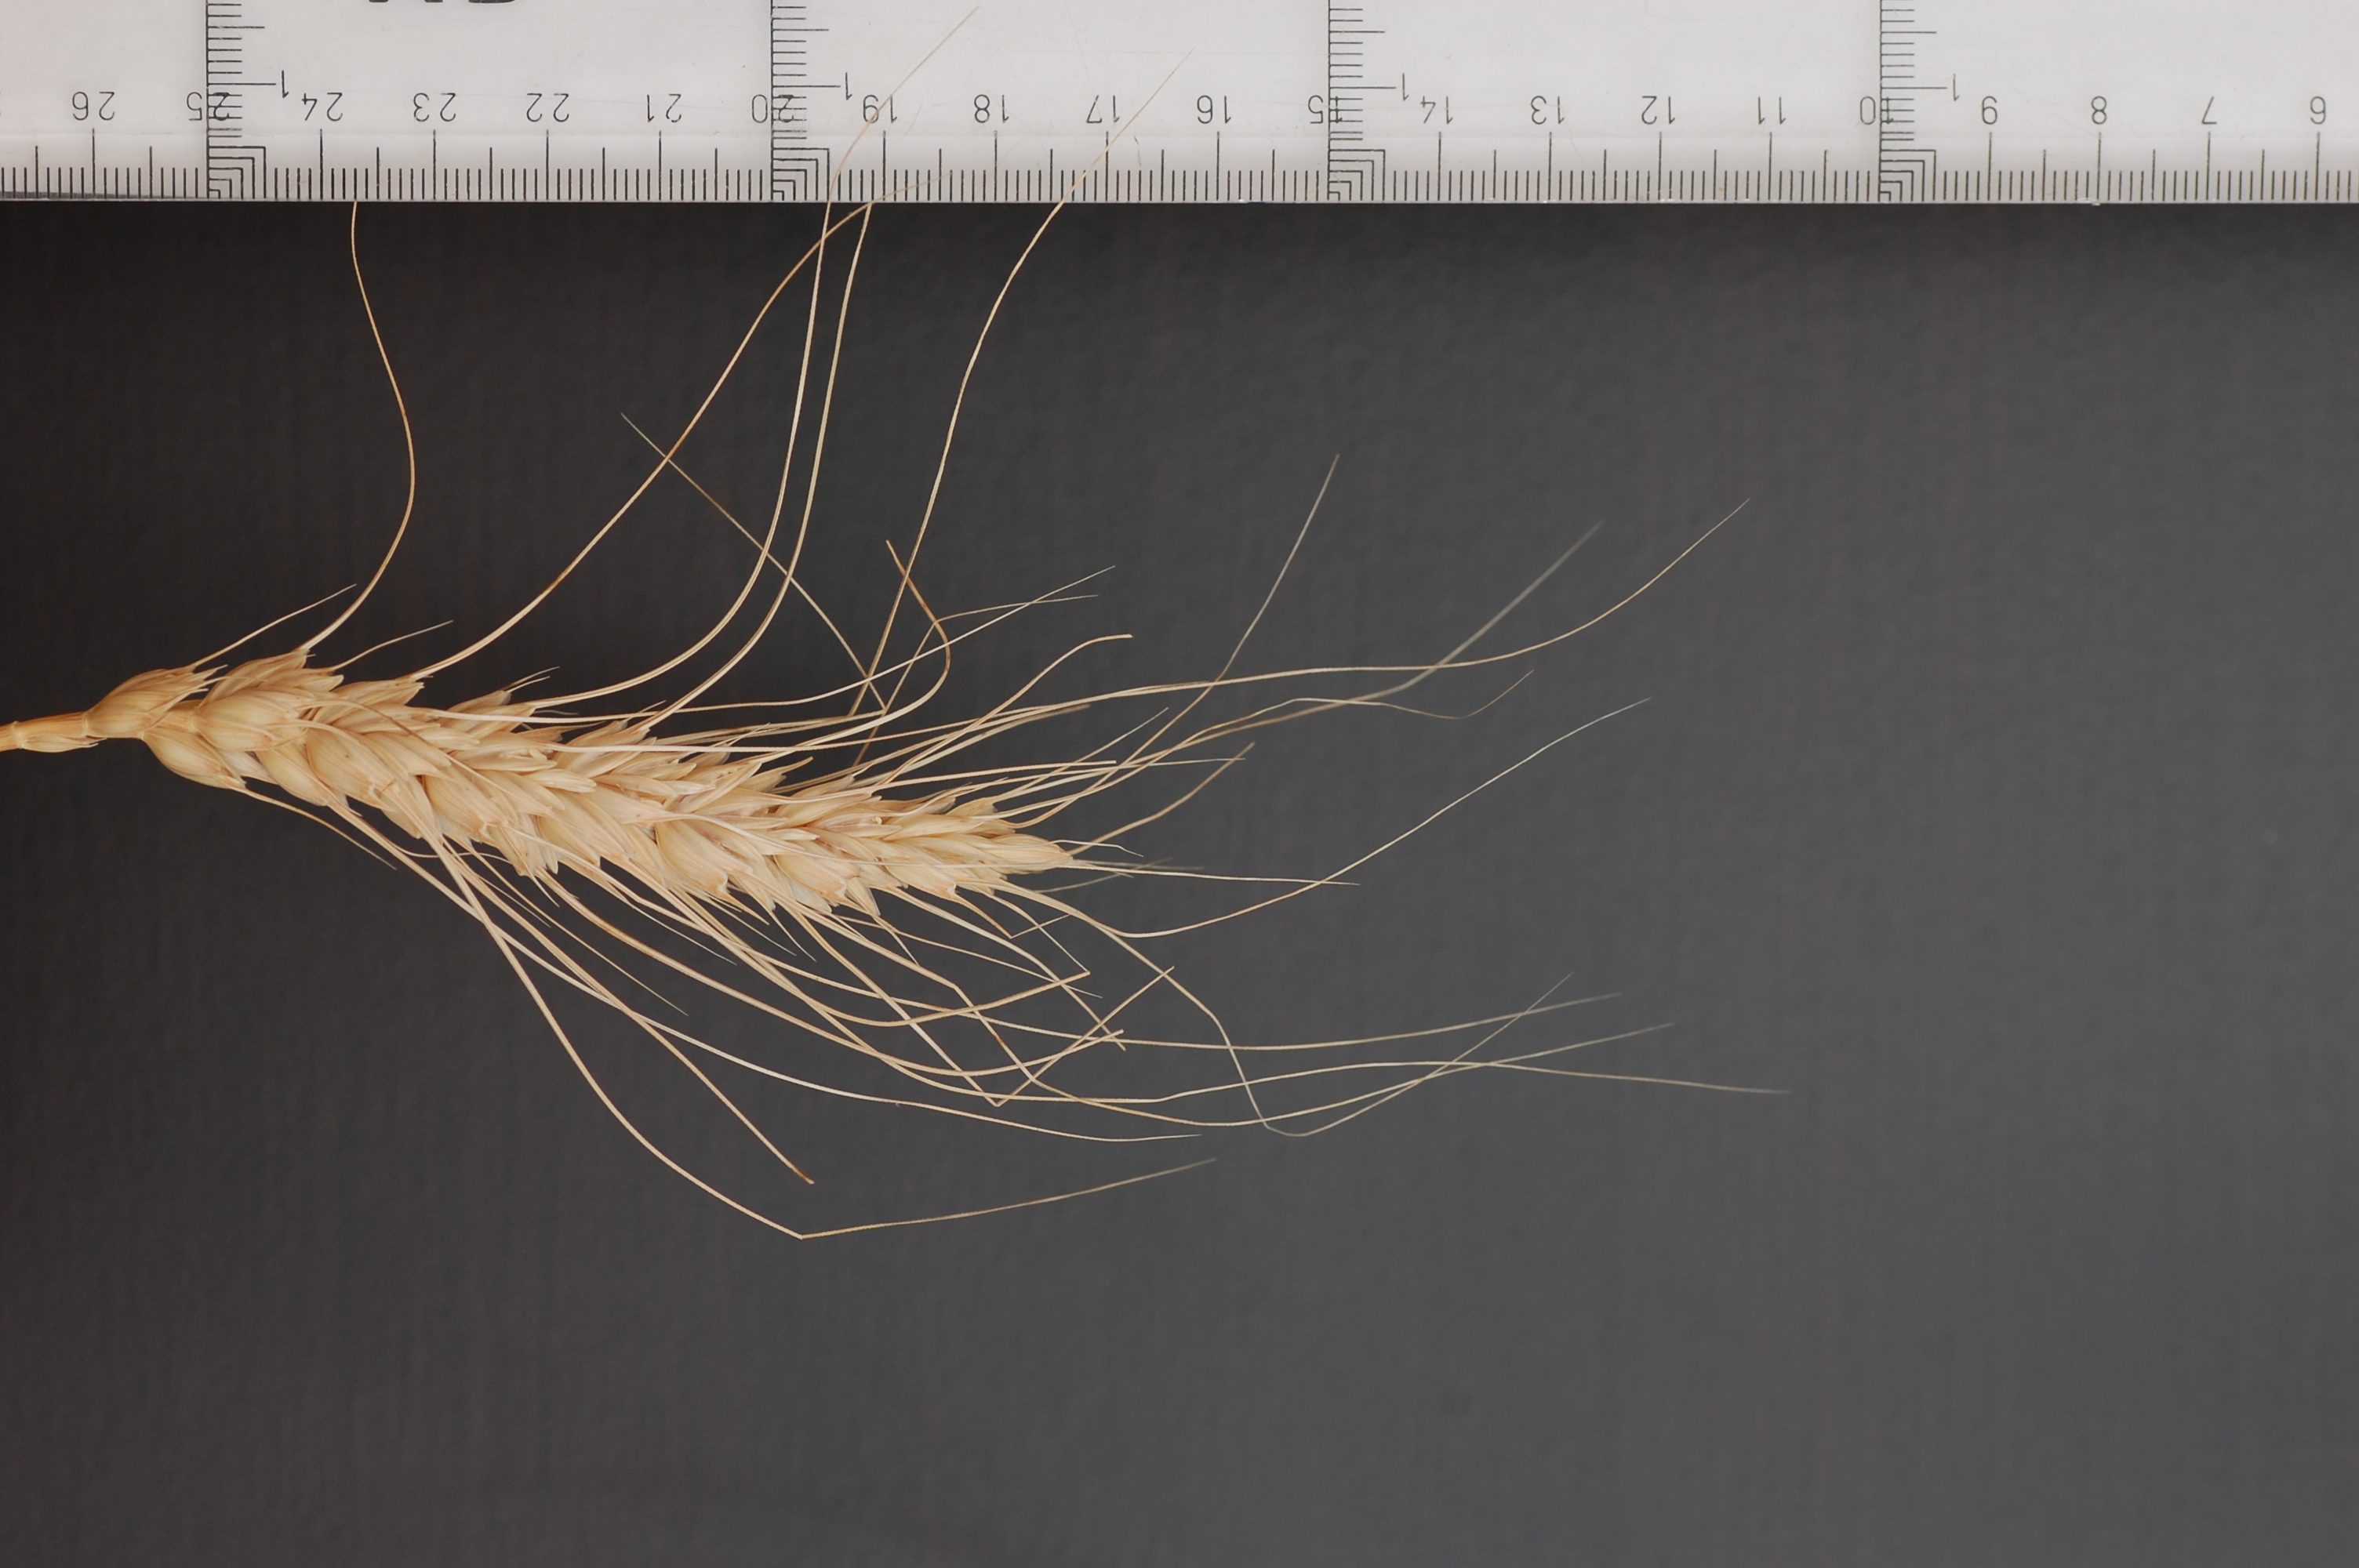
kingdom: Plantae
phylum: Tracheophyta
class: Liliopsida
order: Poales
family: Poaceae
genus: Triticum
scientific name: Triticum aestivum
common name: Common wheat
